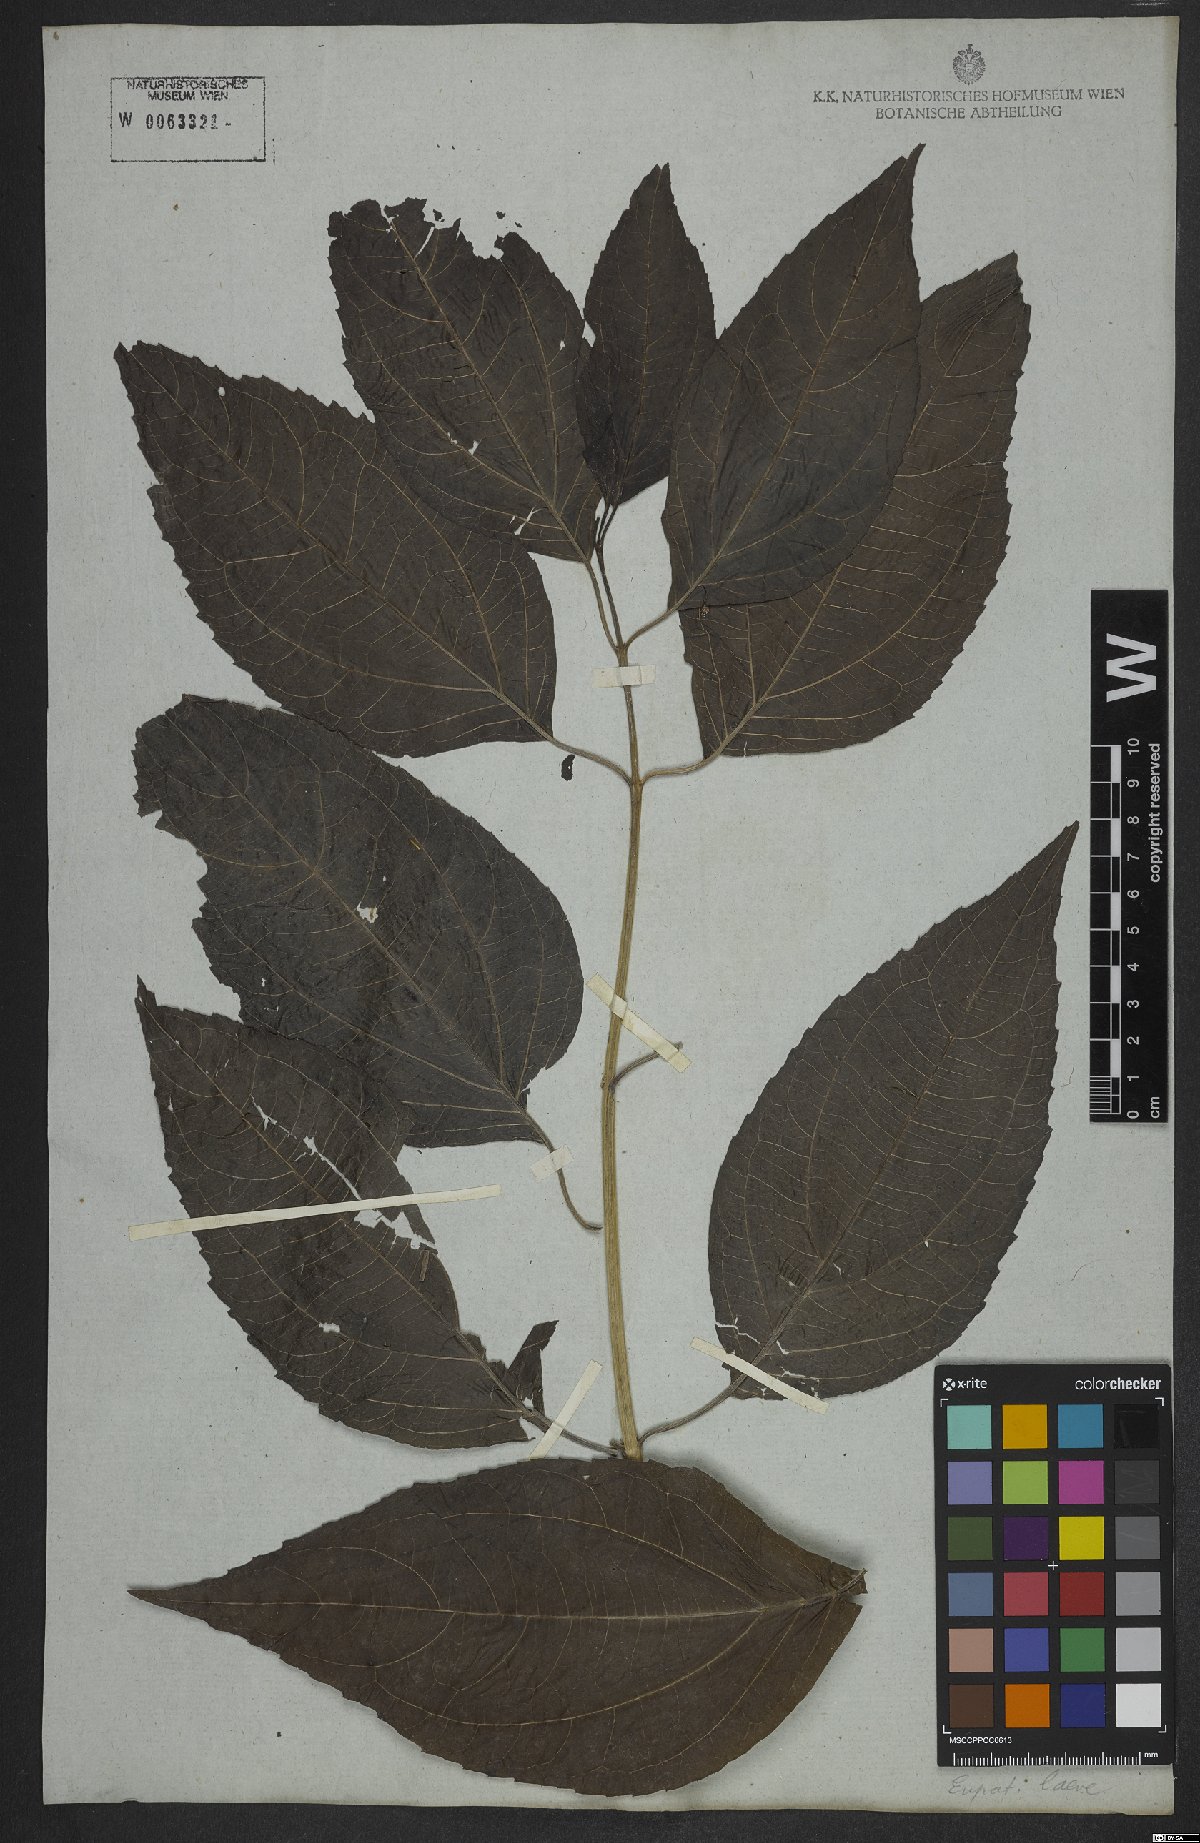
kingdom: Plantae
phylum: Tracheophyta
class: Magnoliopsida
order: Asterales
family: Asteraceae
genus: Koanophyllon
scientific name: Koanophyllon simillimum
